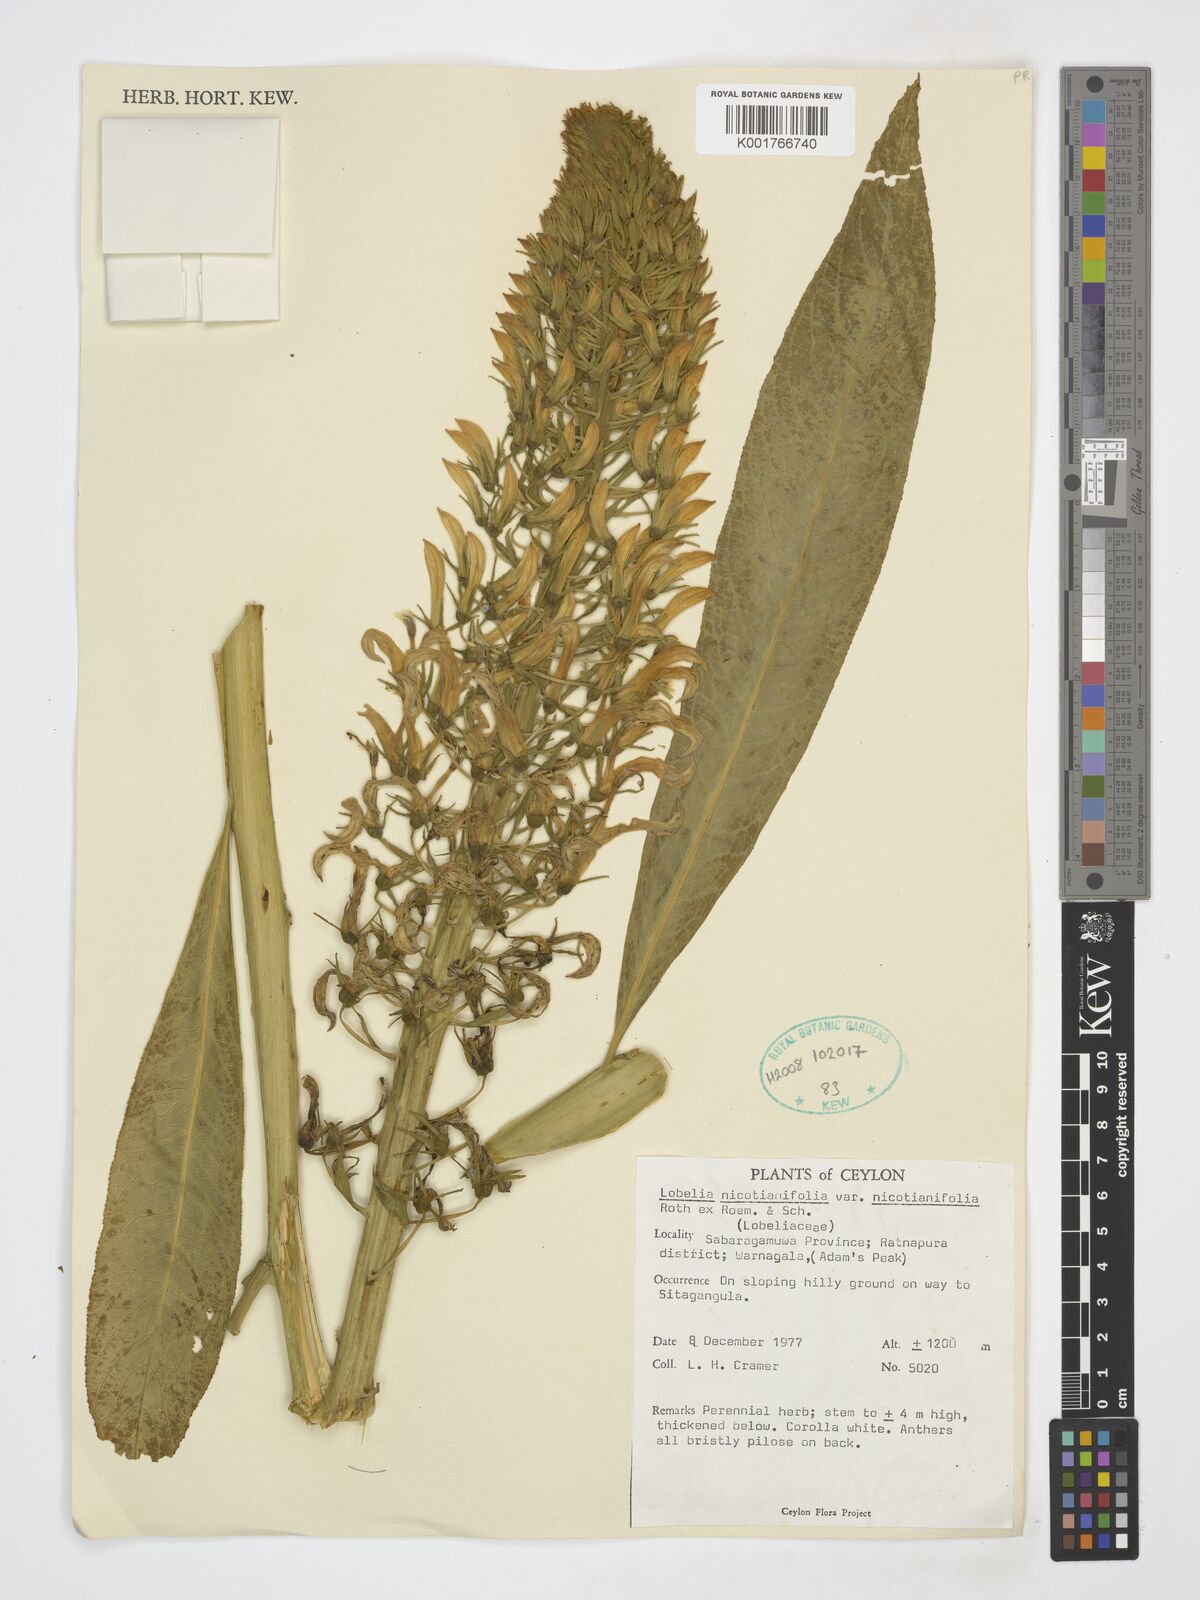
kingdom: Plantae
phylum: Tracheophyta
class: Magnoliopsida
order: Asterales
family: Campanulaceae
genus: Lobelia
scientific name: Lobelia nicotianifolia
